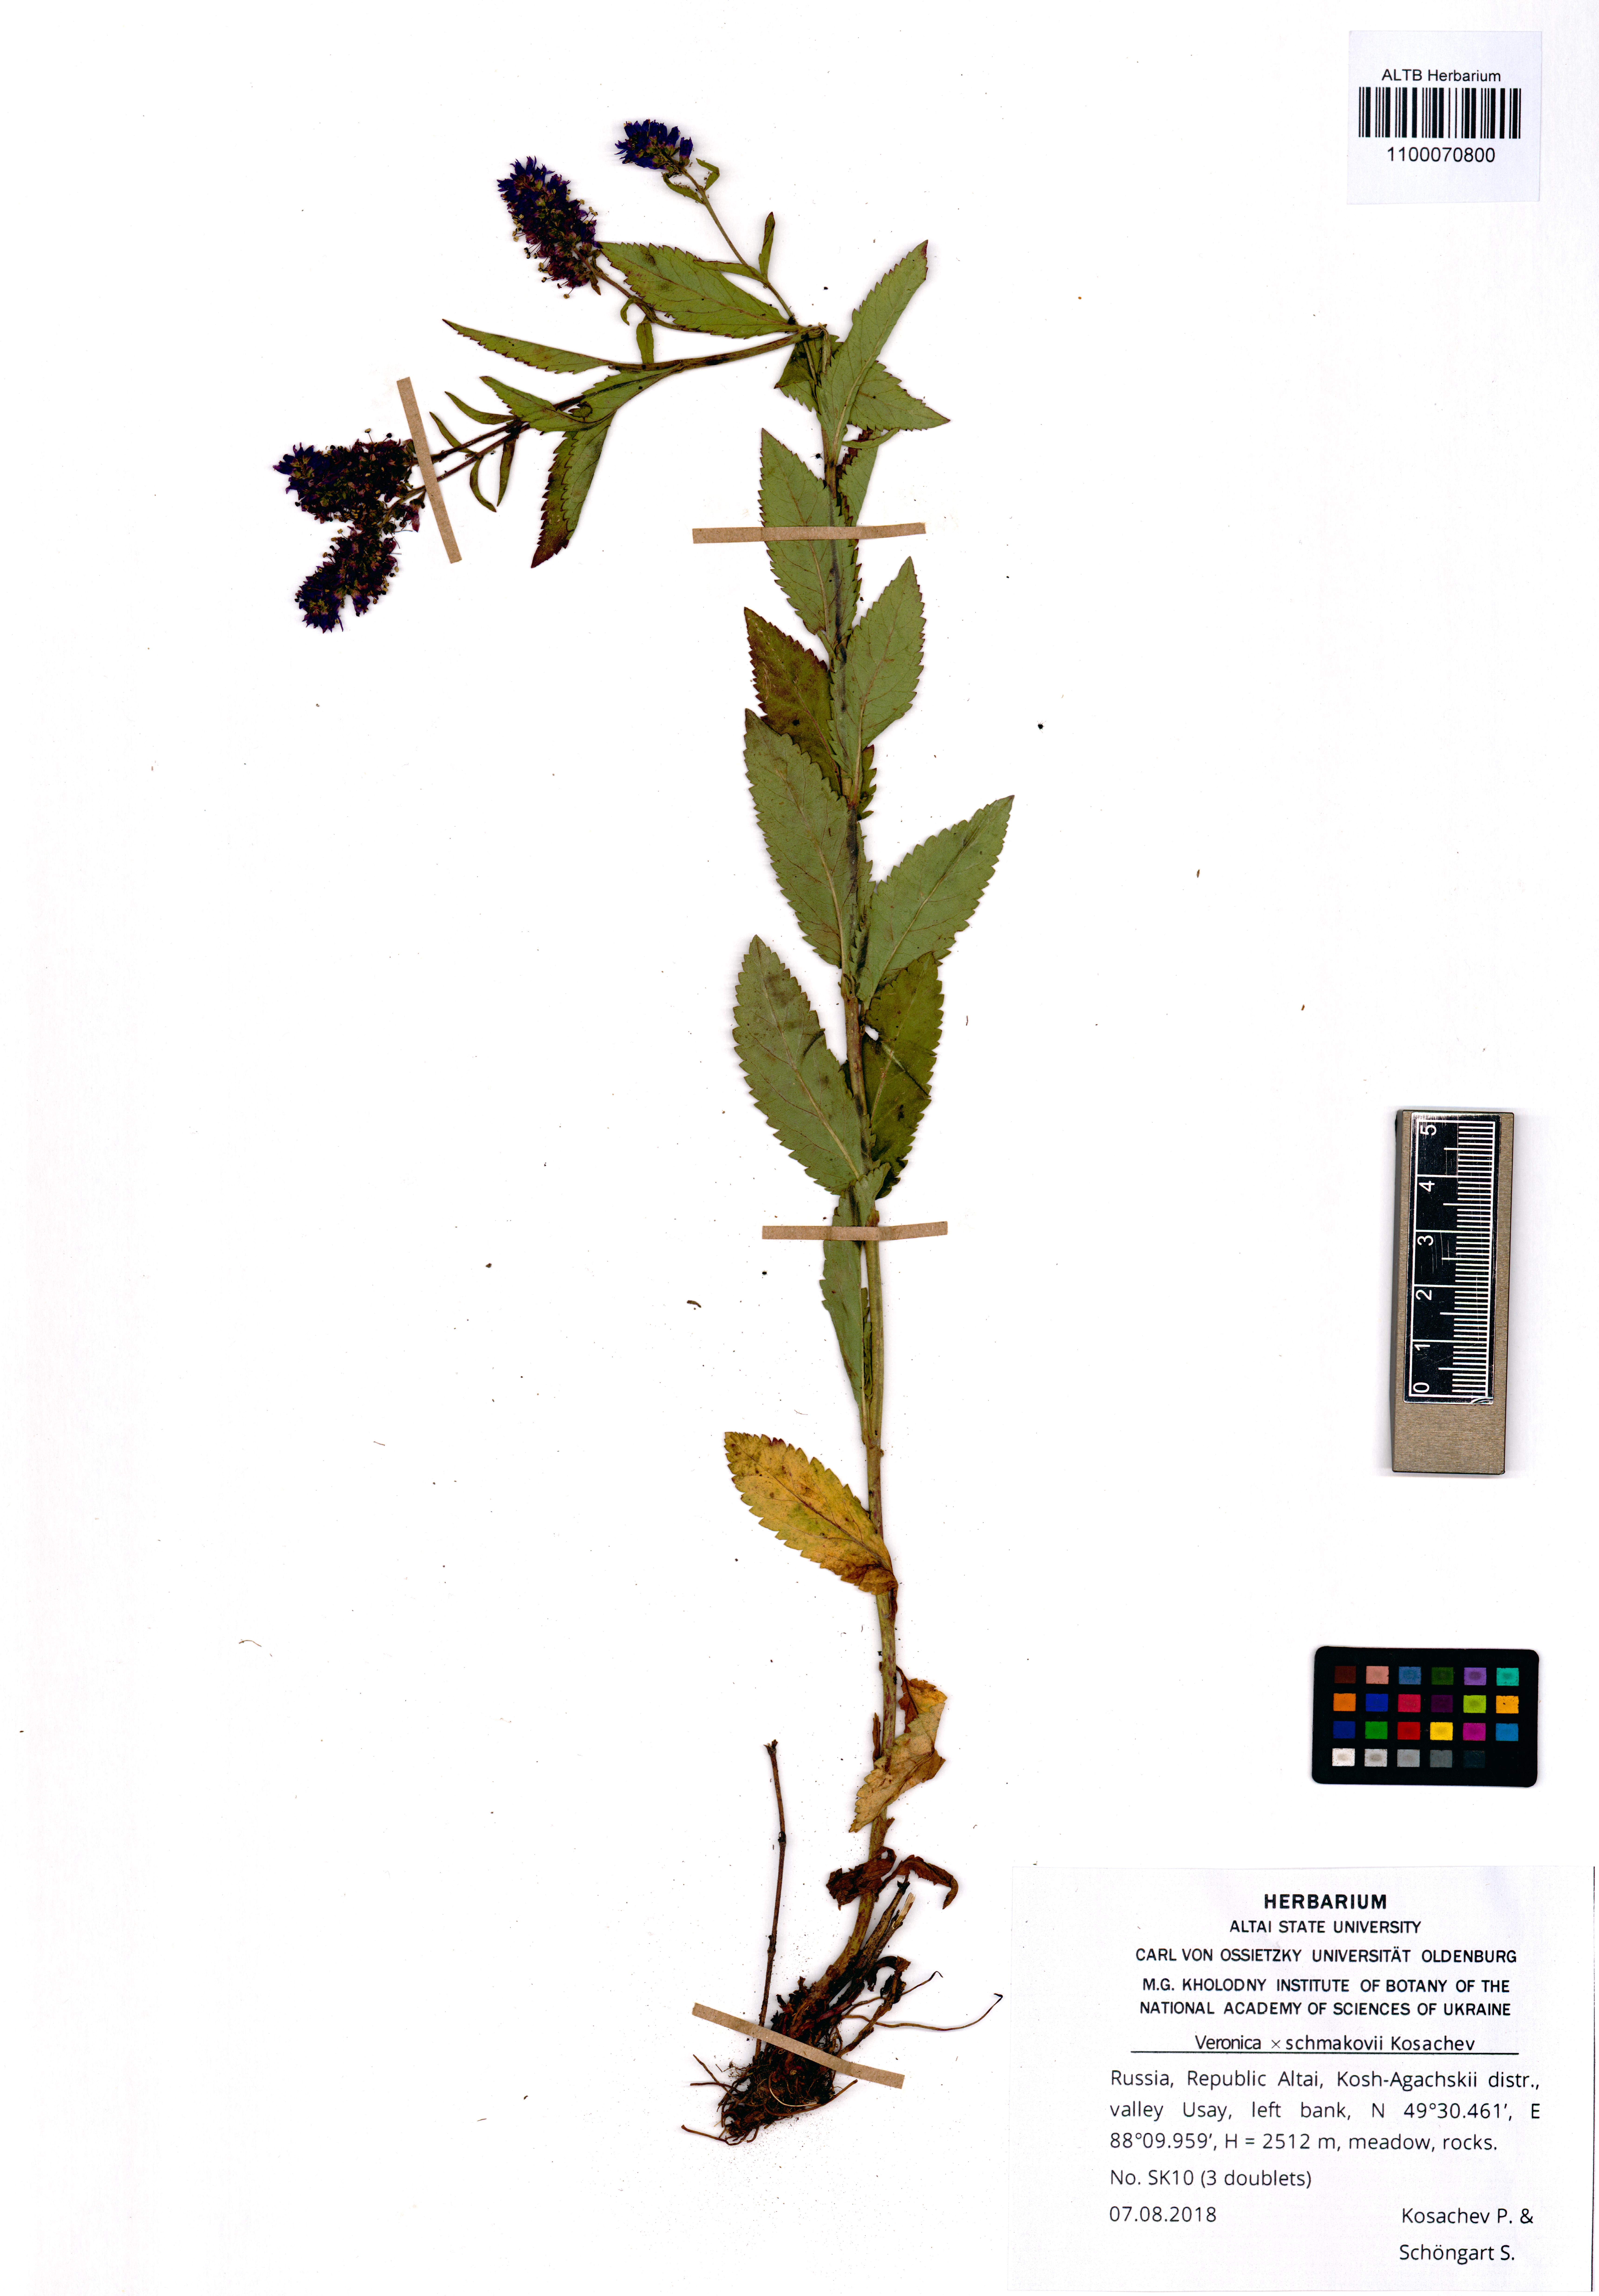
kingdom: Plantae
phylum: Tracheophyta
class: Magnoliopsida
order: Lamiales
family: Plantaginaceae
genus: Veronica
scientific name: Veronica schmakovii
